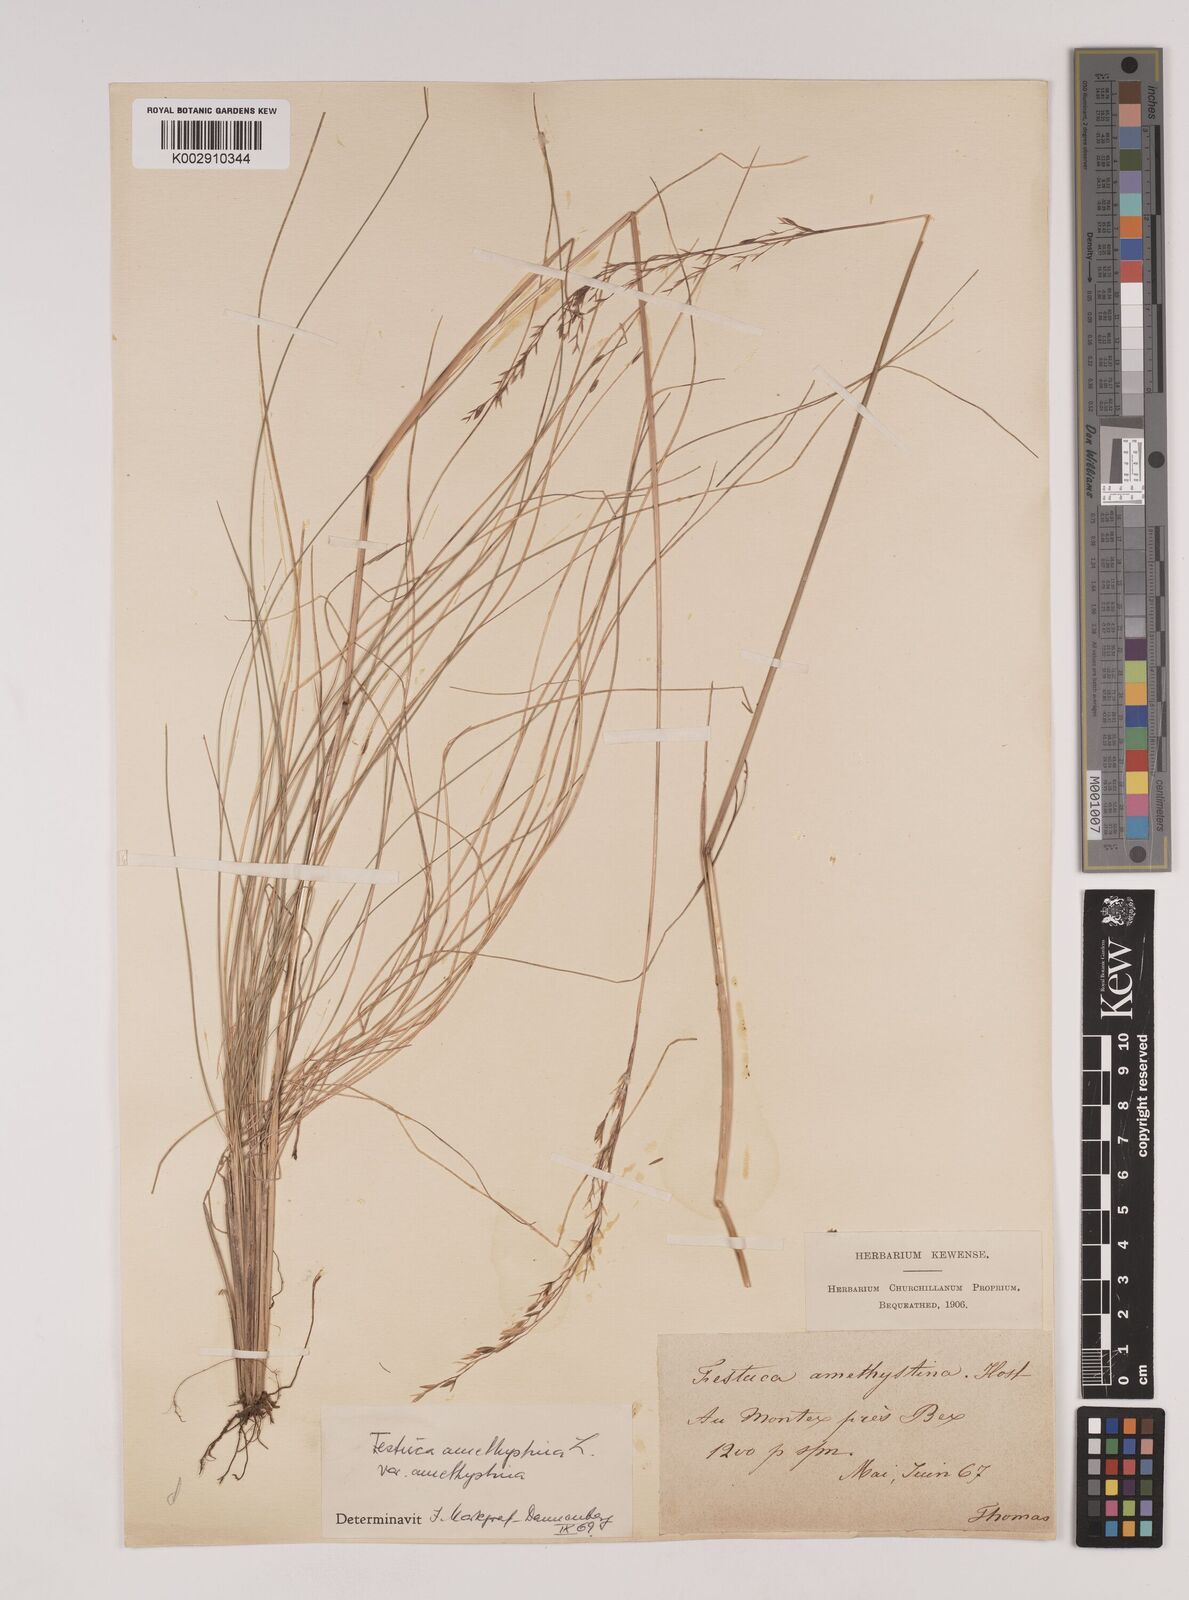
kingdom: Plantae
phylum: Tracheophyta
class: Liliopsida
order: Poales
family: Poaceae
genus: Festuca
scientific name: Festuca amethystina
